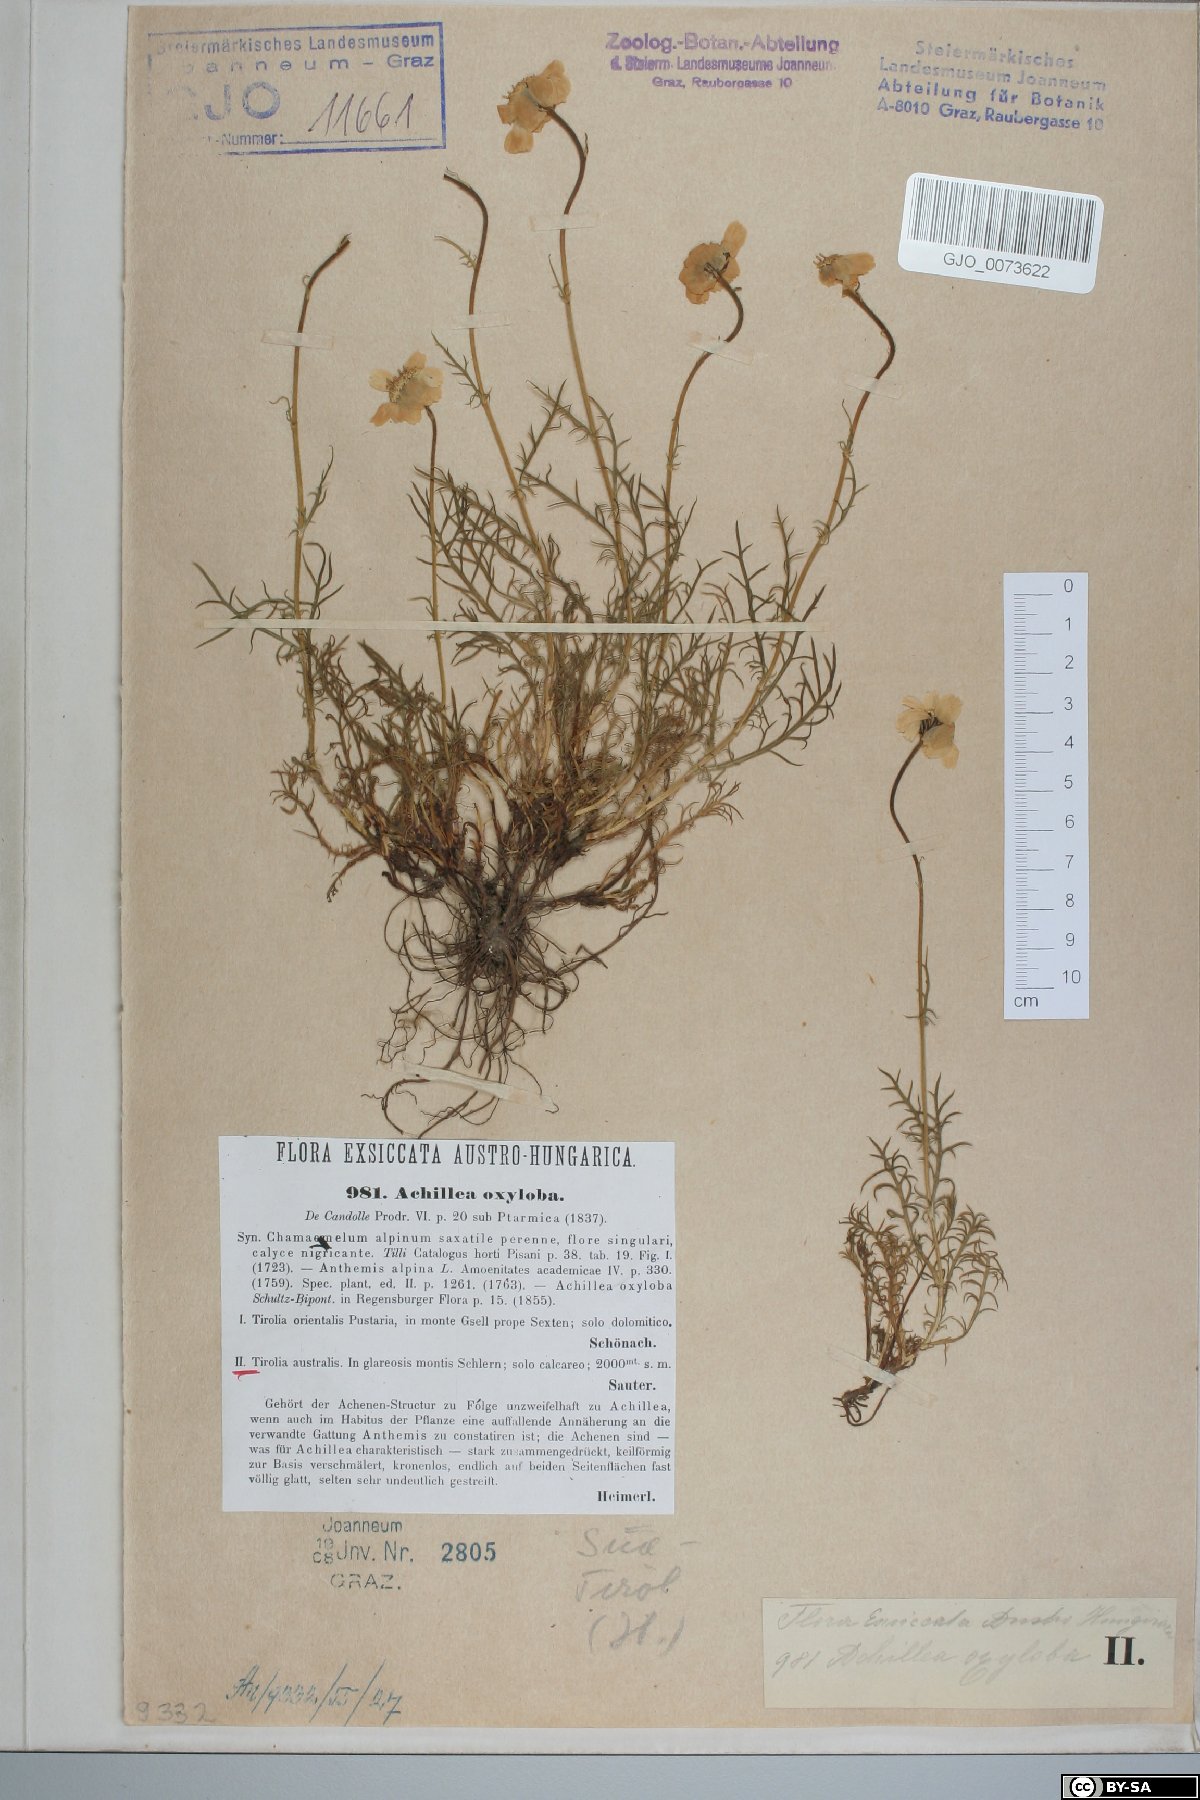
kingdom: Plantae
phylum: Tracheophyta
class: Magnoliopsida
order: Asterales
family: Asteraceae
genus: Achillea
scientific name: Achillea oxyloba
